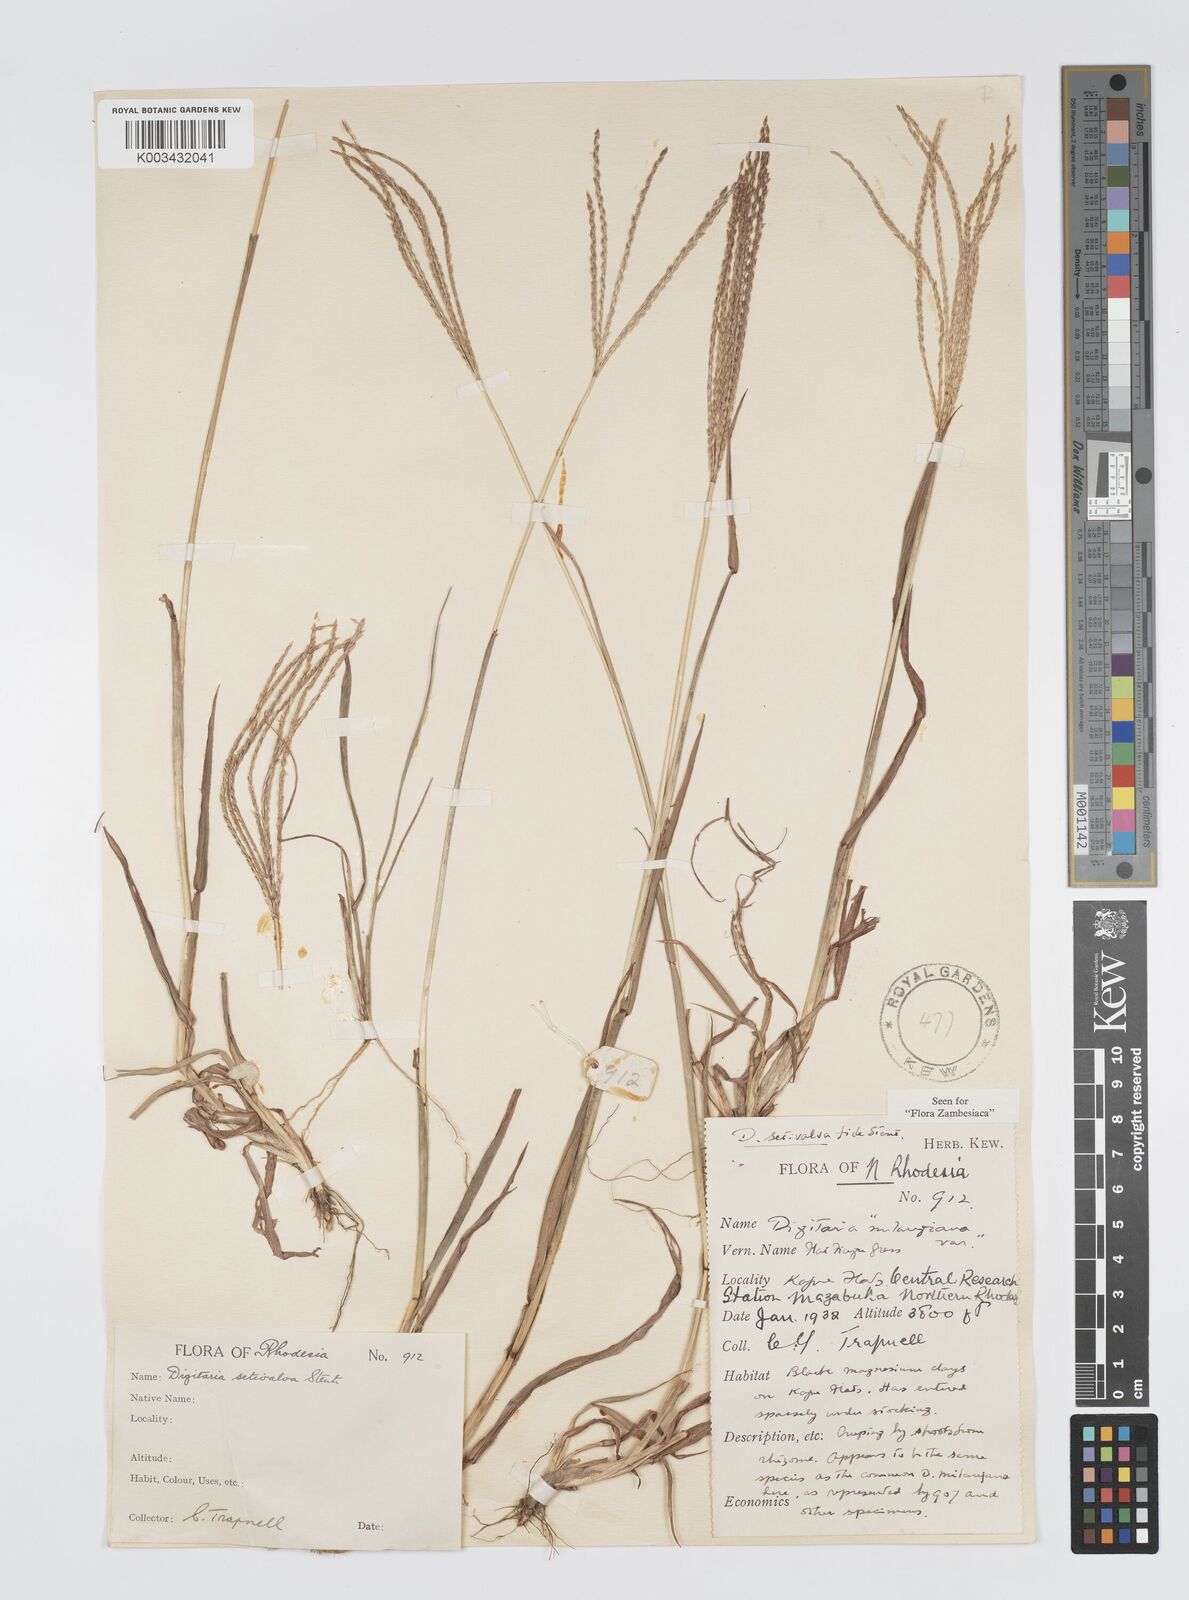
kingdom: Plantae
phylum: Tracheophyta
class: Liliopsida
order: Poales
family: Poaceae
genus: Digitaria
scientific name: Digitaria milanjiana
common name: Madagascar crabgrass
